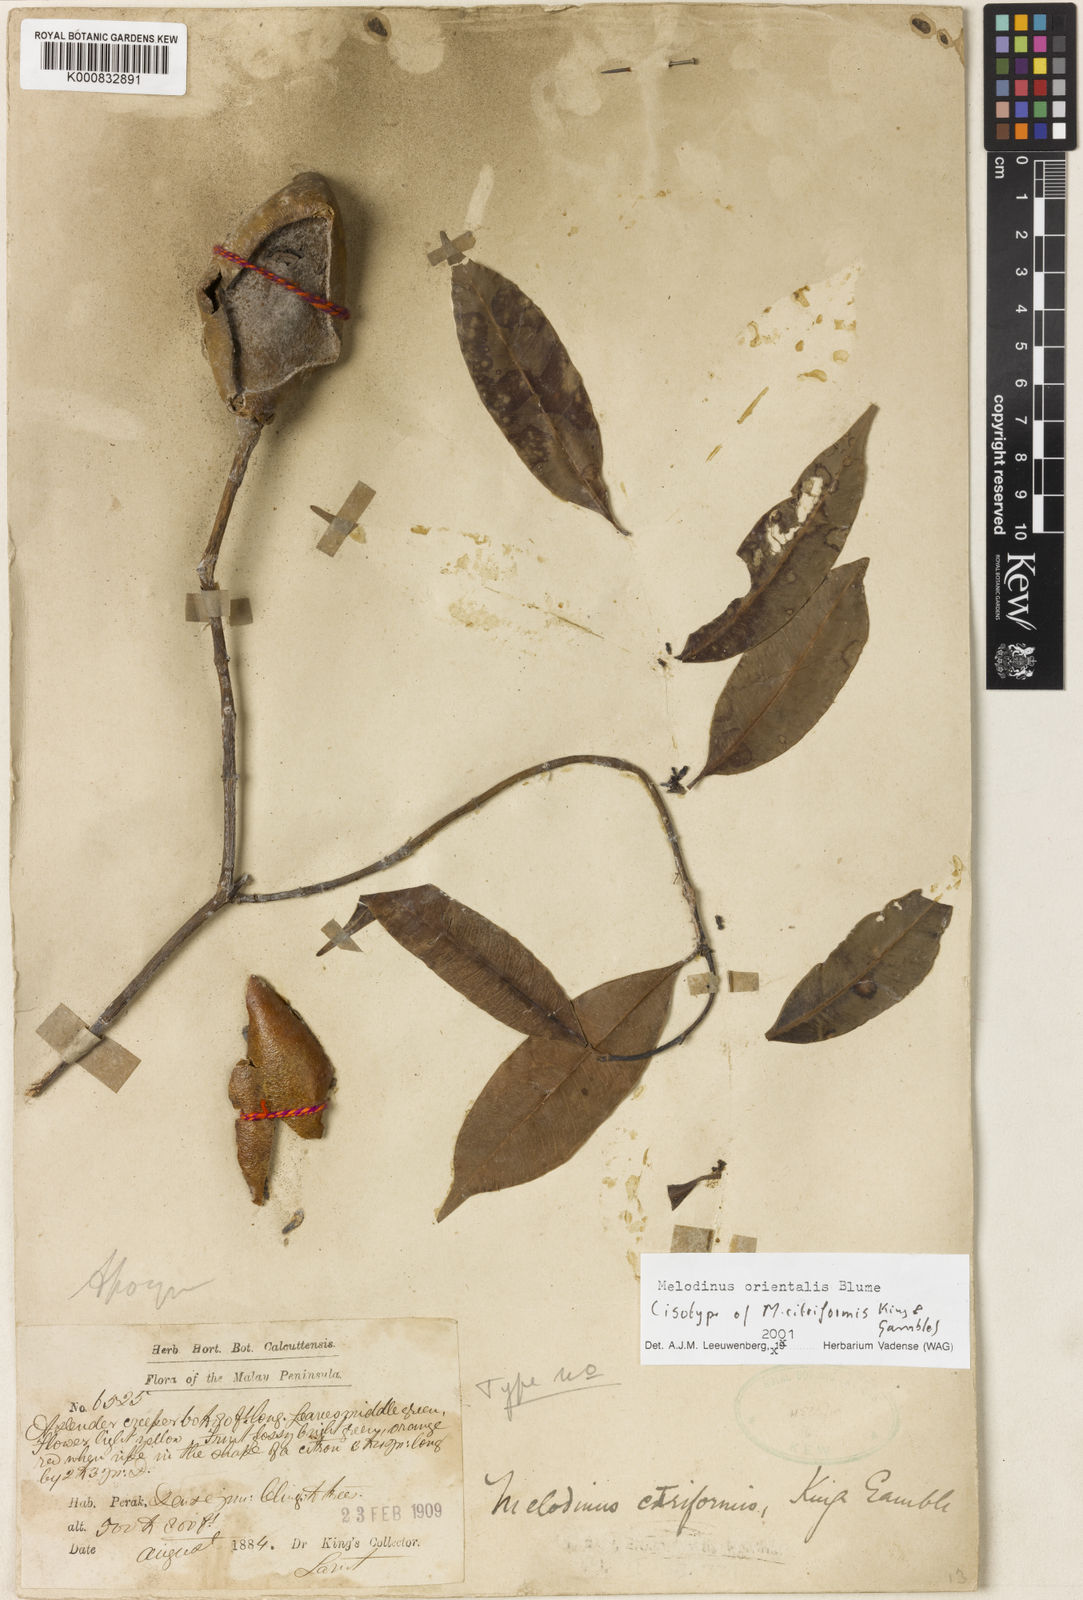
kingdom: Plantae
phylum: Tracheophyta
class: Magnoliopsida
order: Gentianales
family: Apocynaceae
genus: Melodinus
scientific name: Melodinus orientalis
